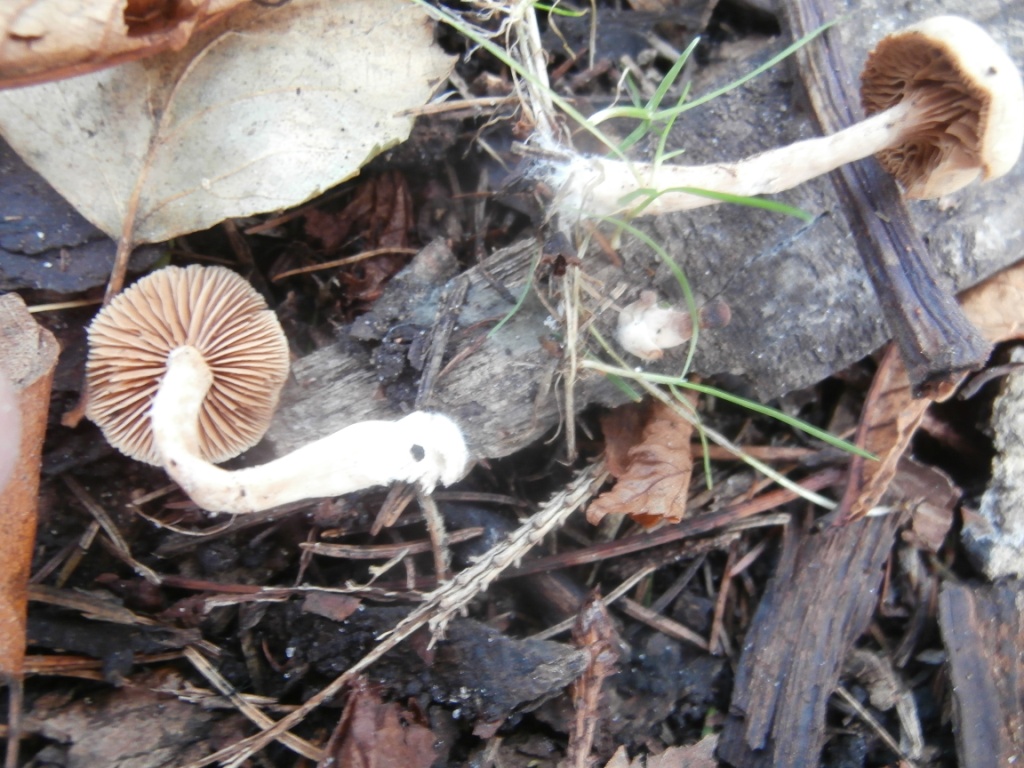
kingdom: Fungi
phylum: Basidiomycota
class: Agaricomycetes
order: Agaricales
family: Tubariaceae
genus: Tubaria
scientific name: Tubaria furfuracea
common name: kliddet fnughat
